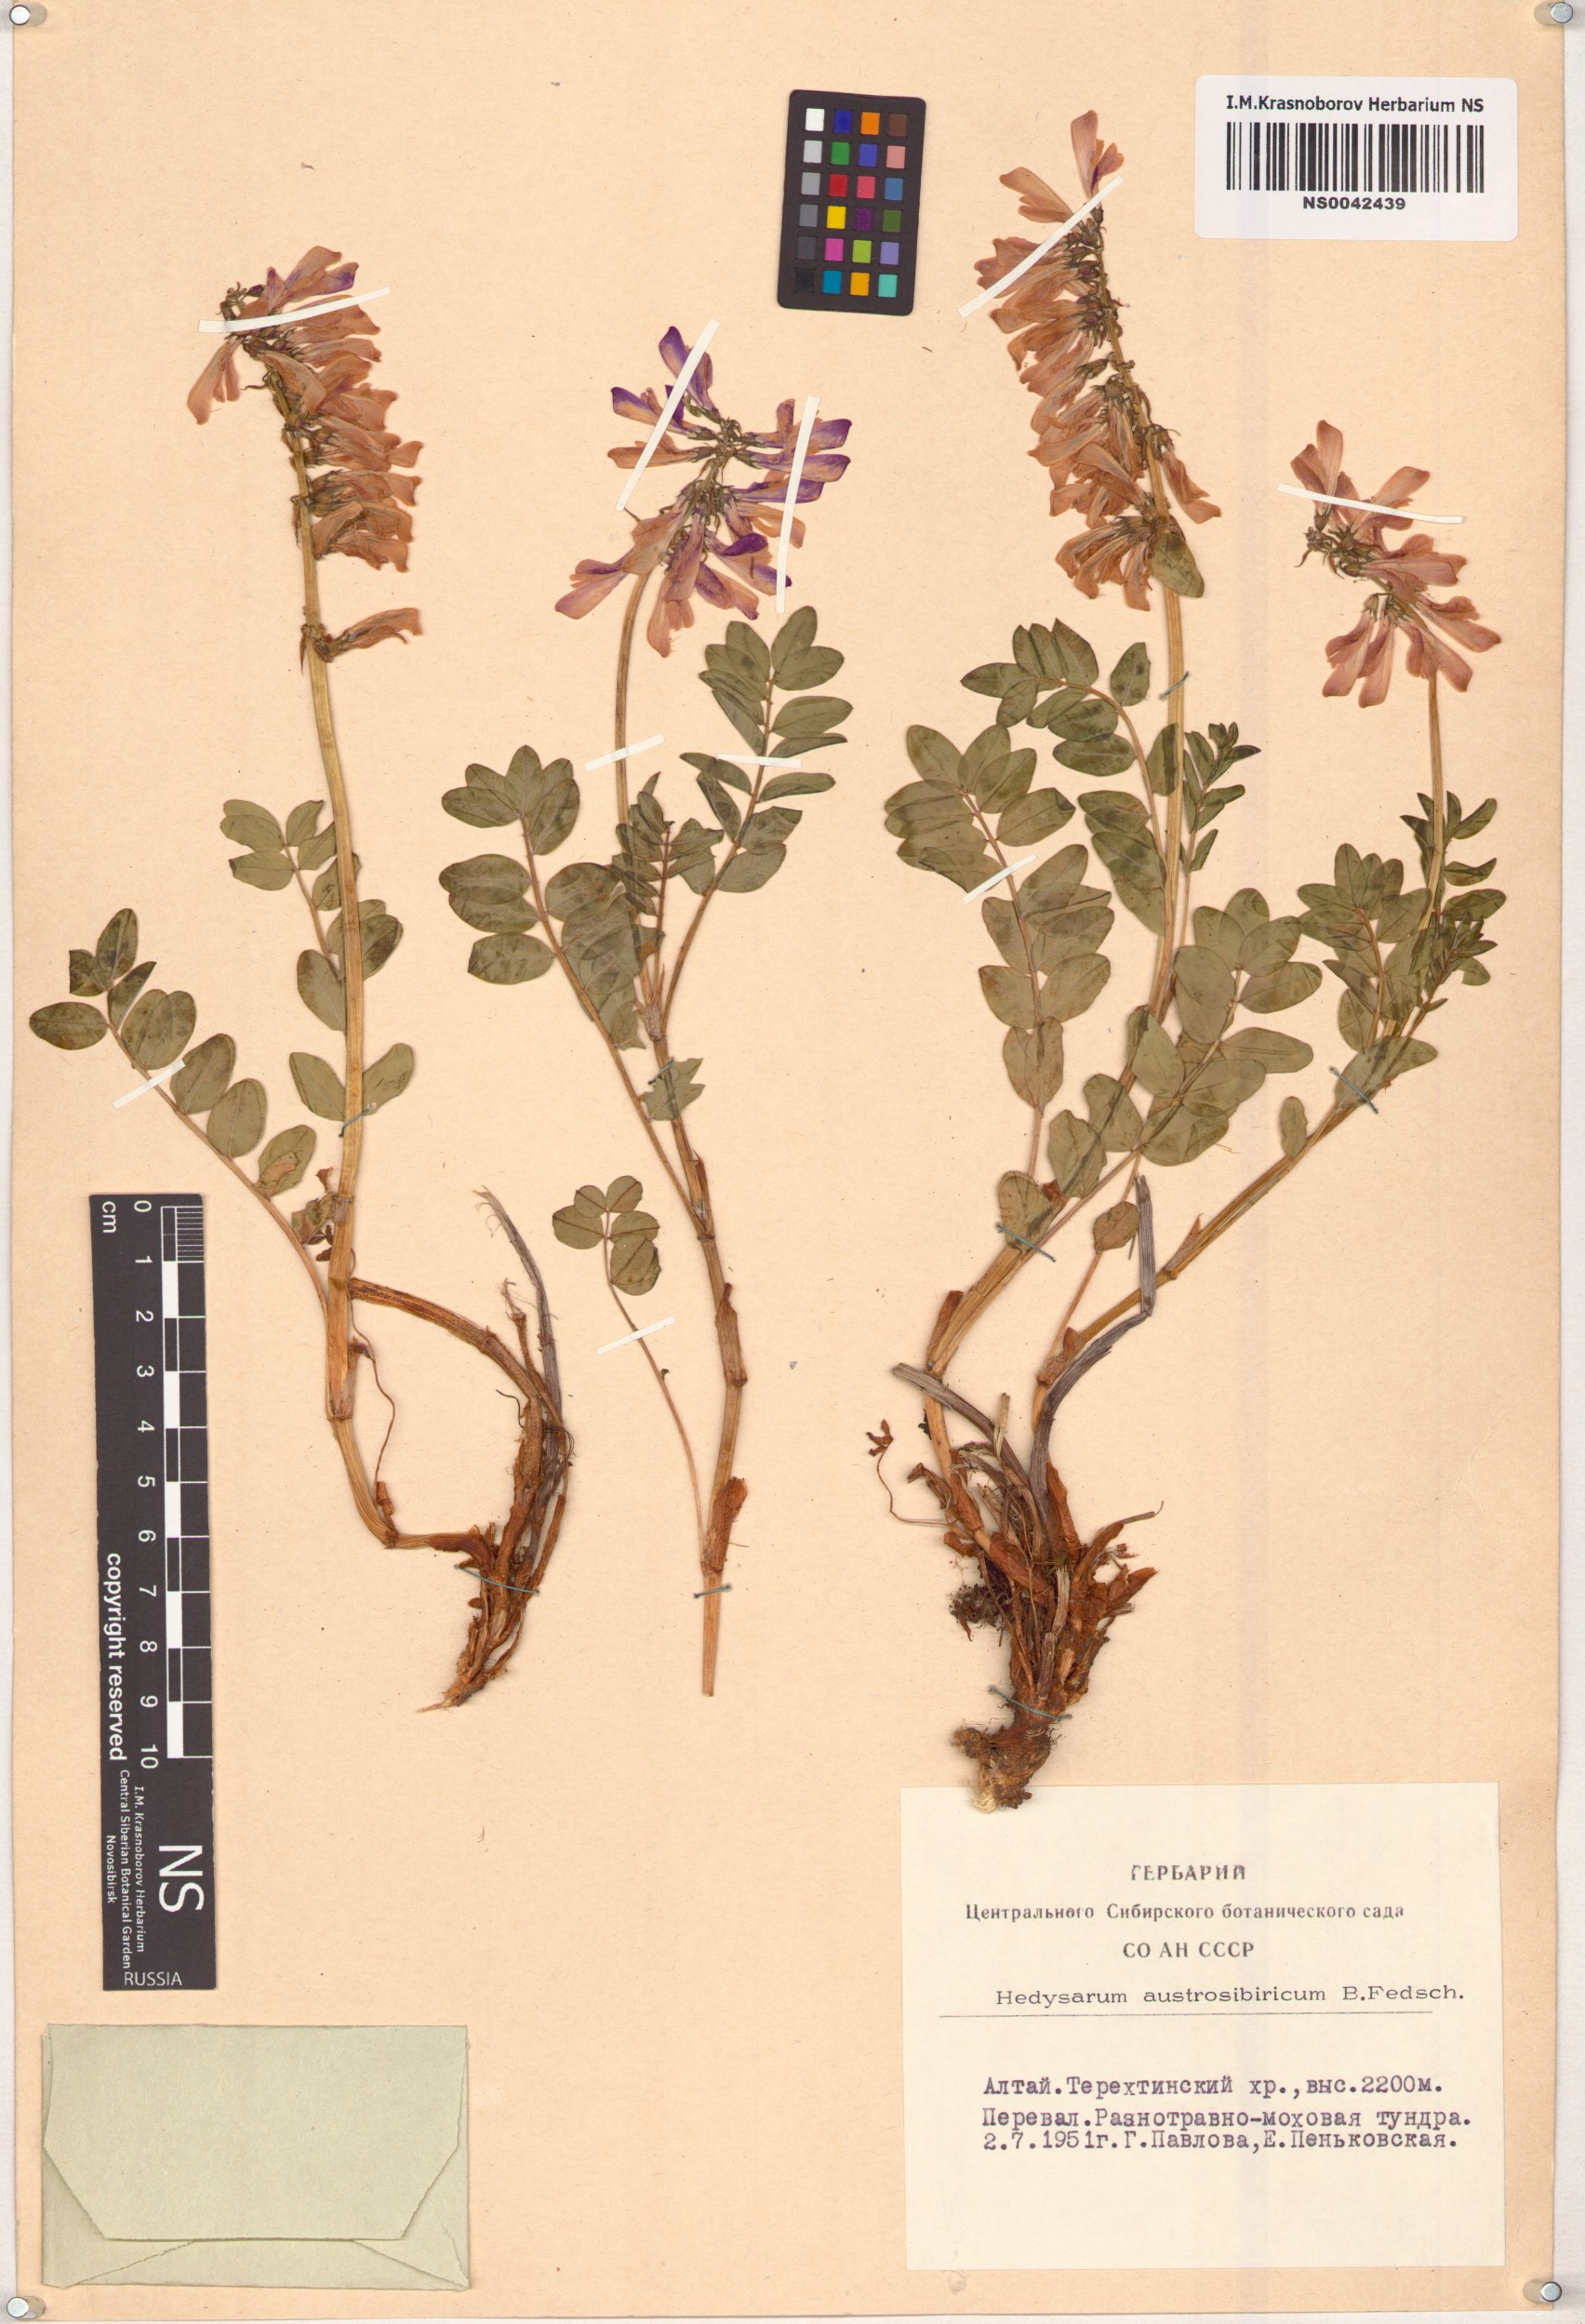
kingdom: Plantae
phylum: Tracheophyta
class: Magnoliopsida
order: Fabales
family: Fabaceae
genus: Hedysarum
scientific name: Hedysarum neglectum
